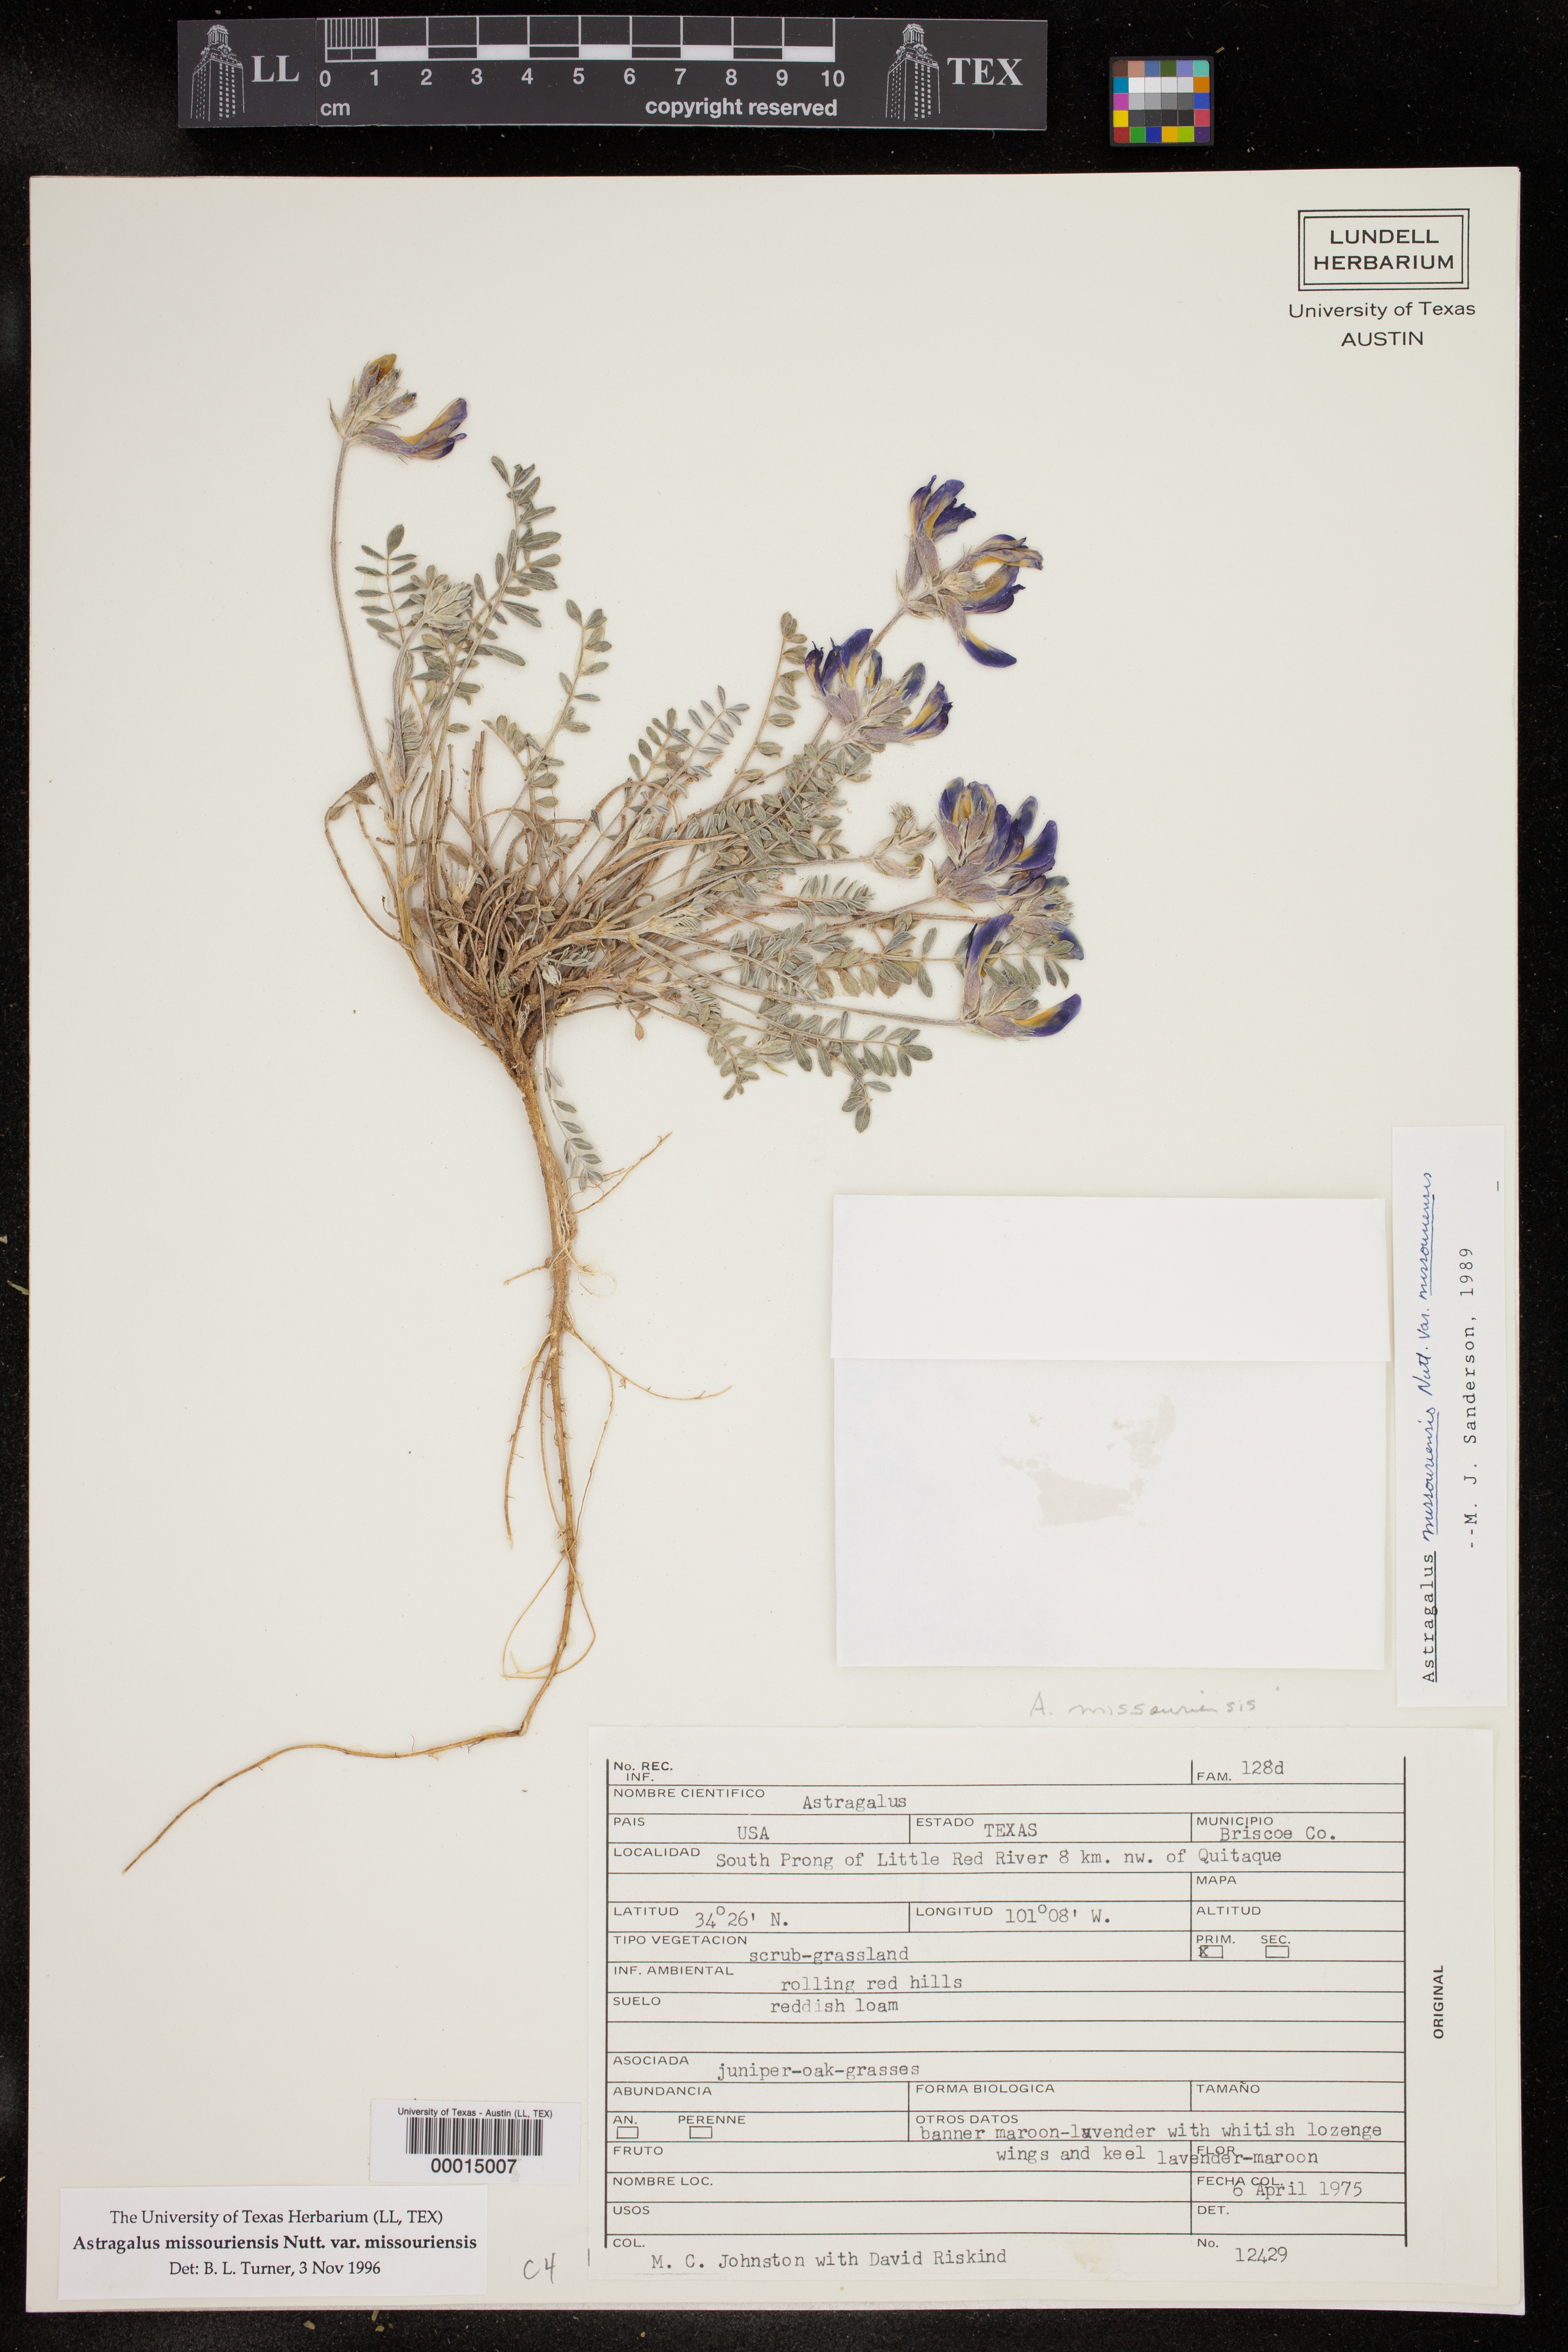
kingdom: Plantae
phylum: Tracheophyta
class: Magnoliopsida
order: Fabales
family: Fabaceae
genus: Astragalus
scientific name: Astragalus missouriensis
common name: Missouri milk-vetch
